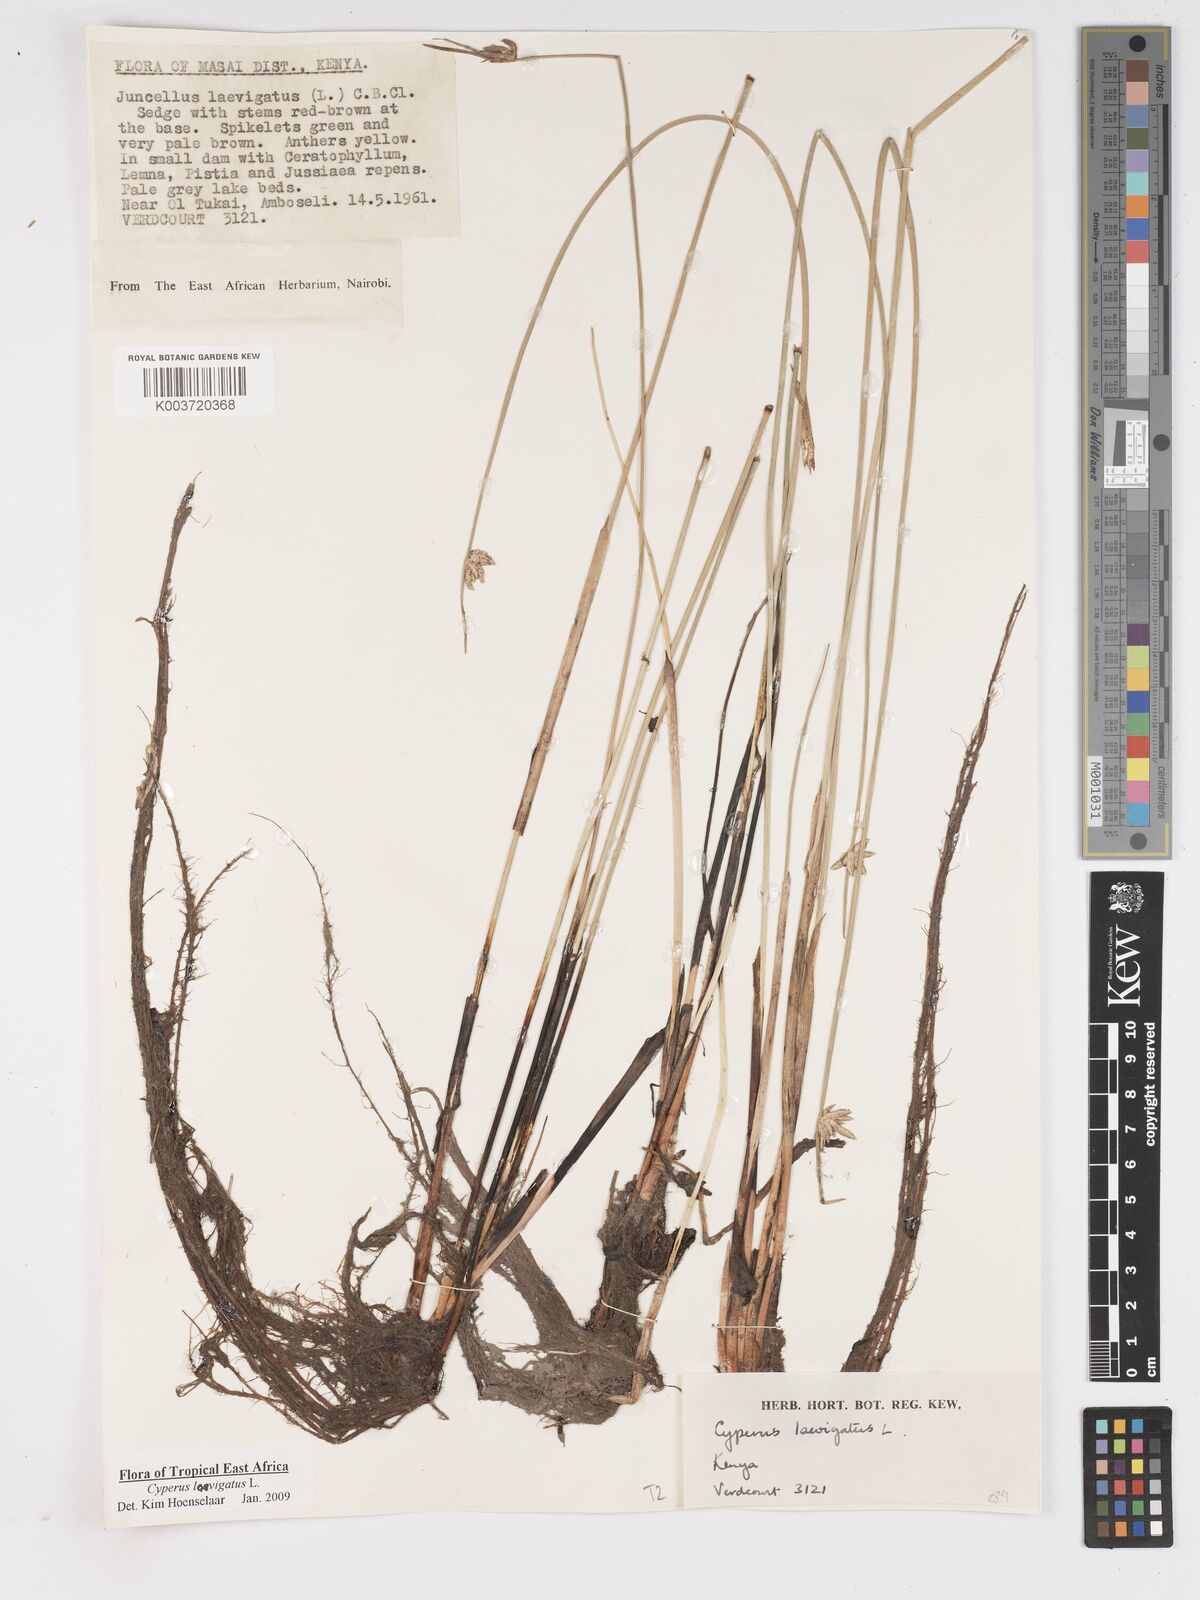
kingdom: Plantae
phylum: Tracheophyta
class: Liliopsida
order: Poales
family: Cyperaceae
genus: Cyperus
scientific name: Cyperus laevigatus
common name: Smooth flat sedge
